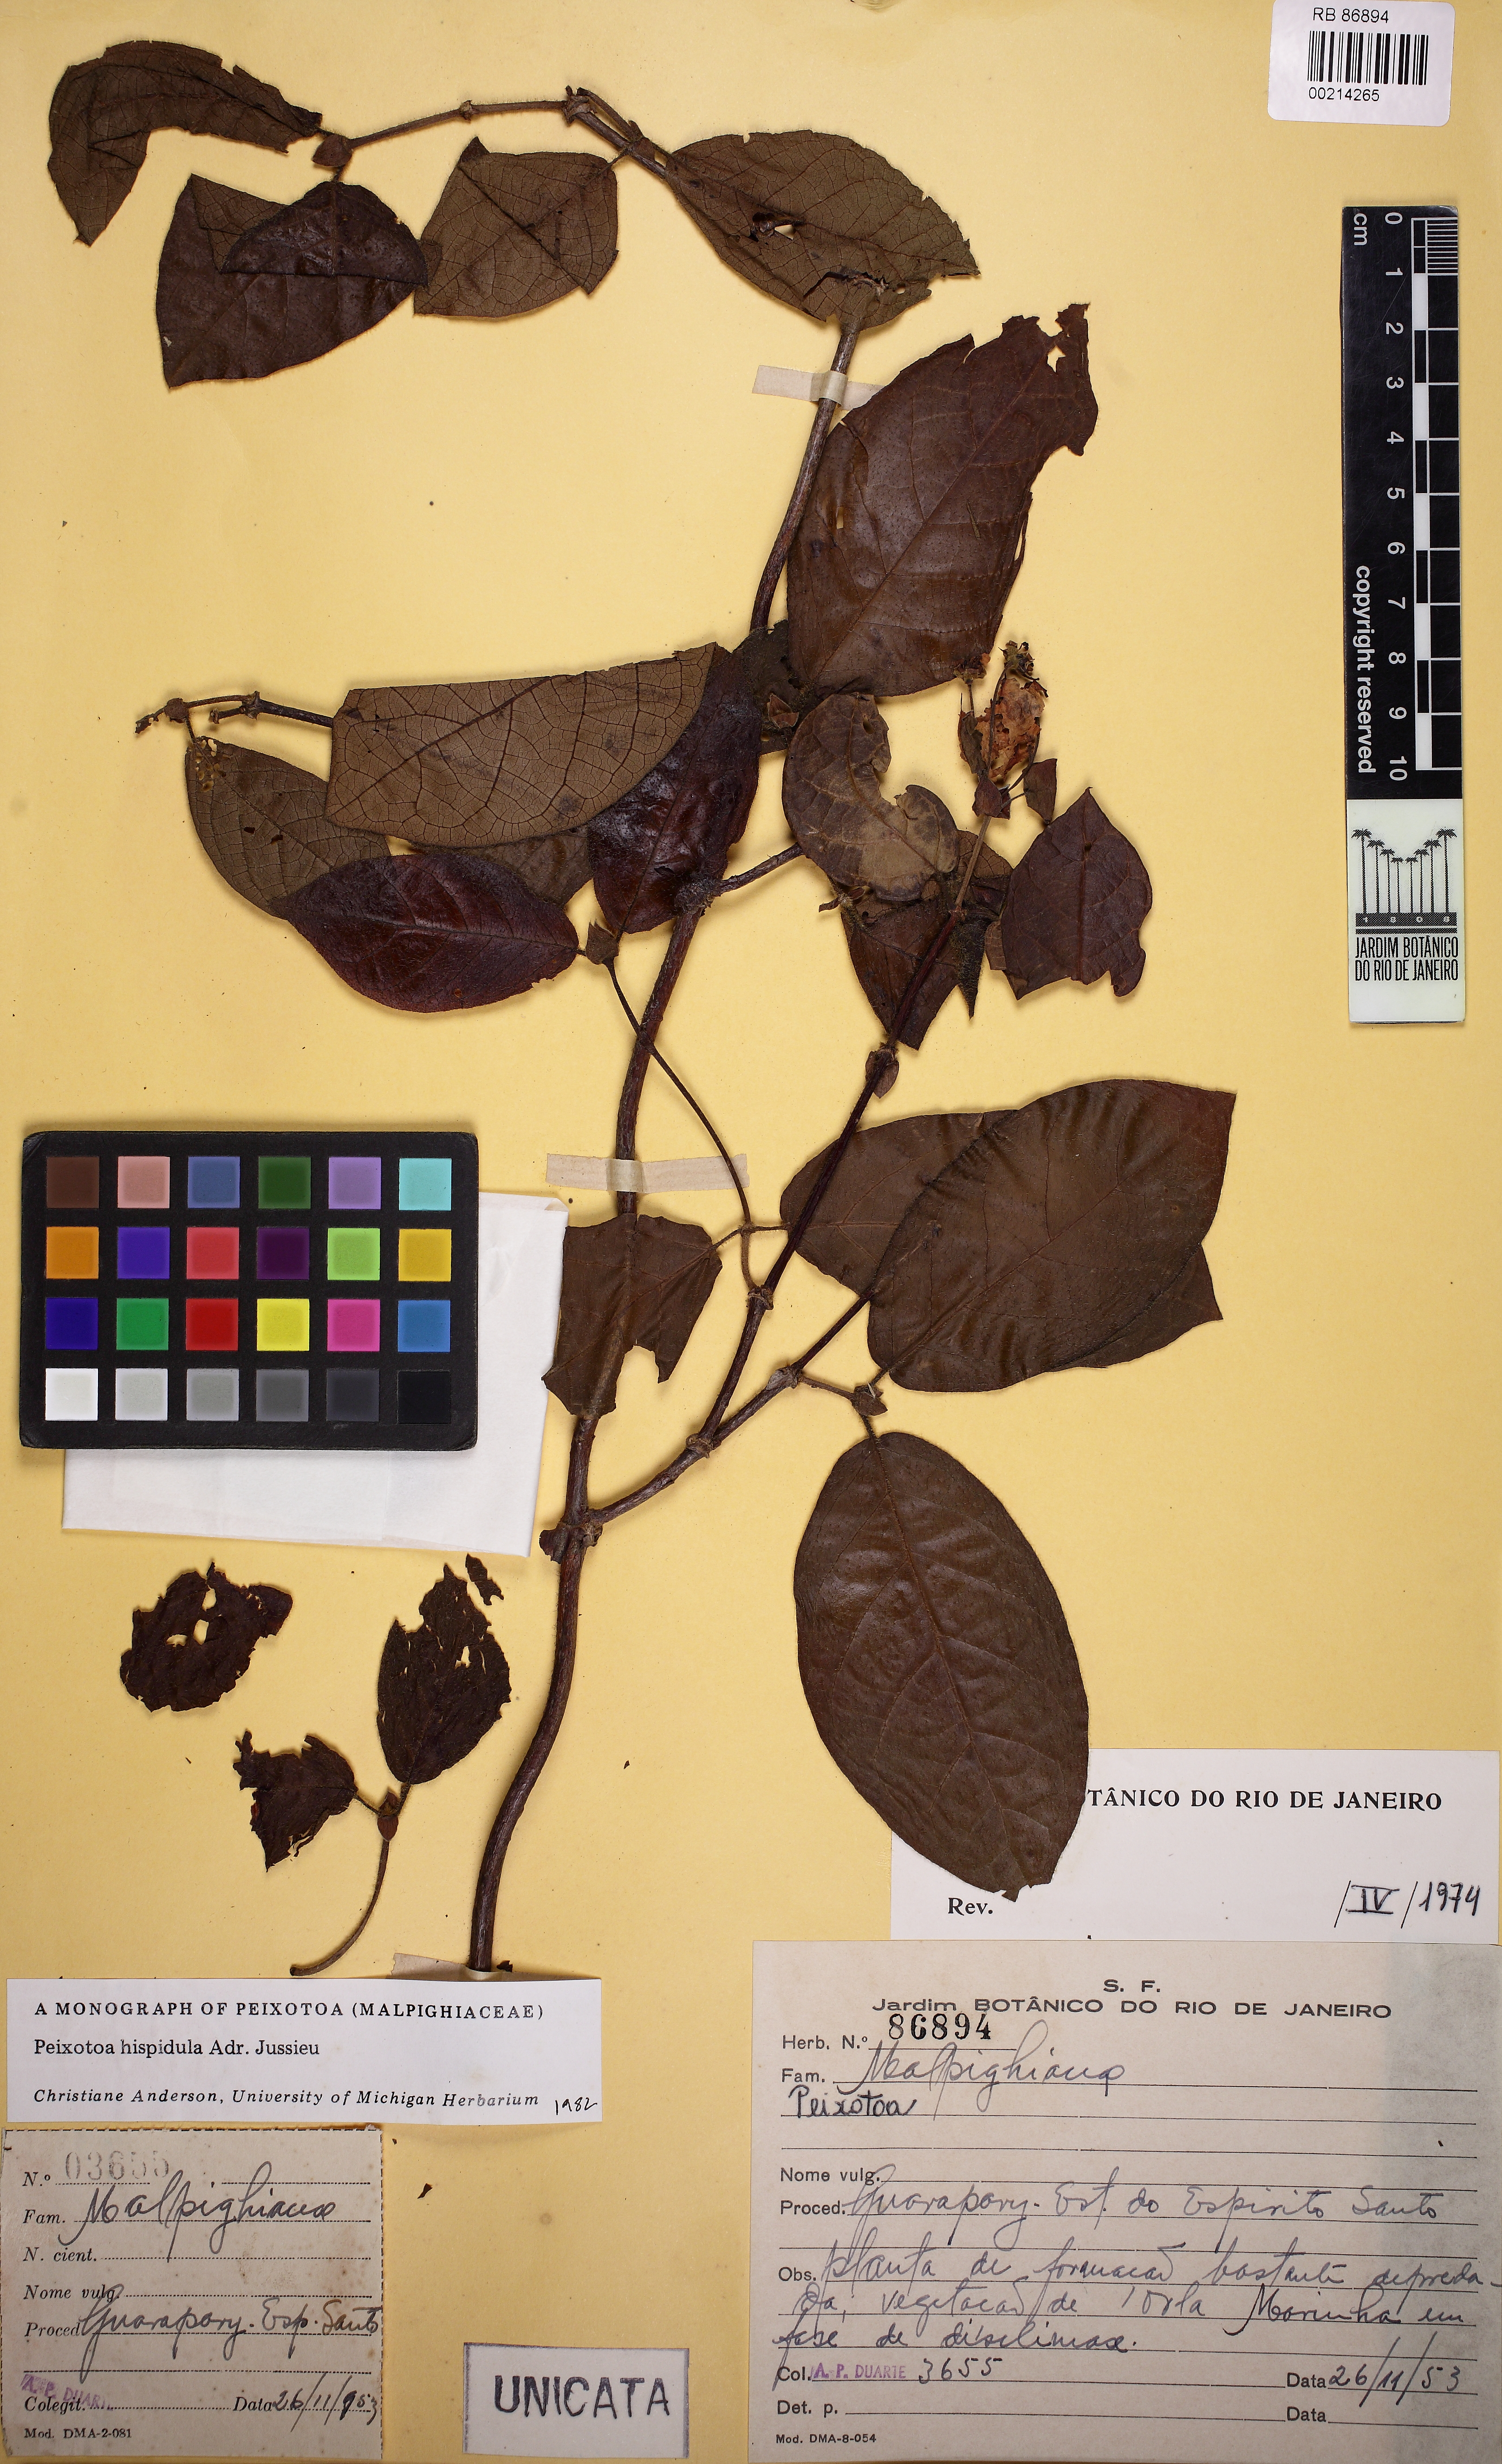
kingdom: Plantae
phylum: Tracheophyta
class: Magnoliopsida
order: Malpighiales
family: Malpighiaceae
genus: Peixotoa
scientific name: Peixotoa hispidula
